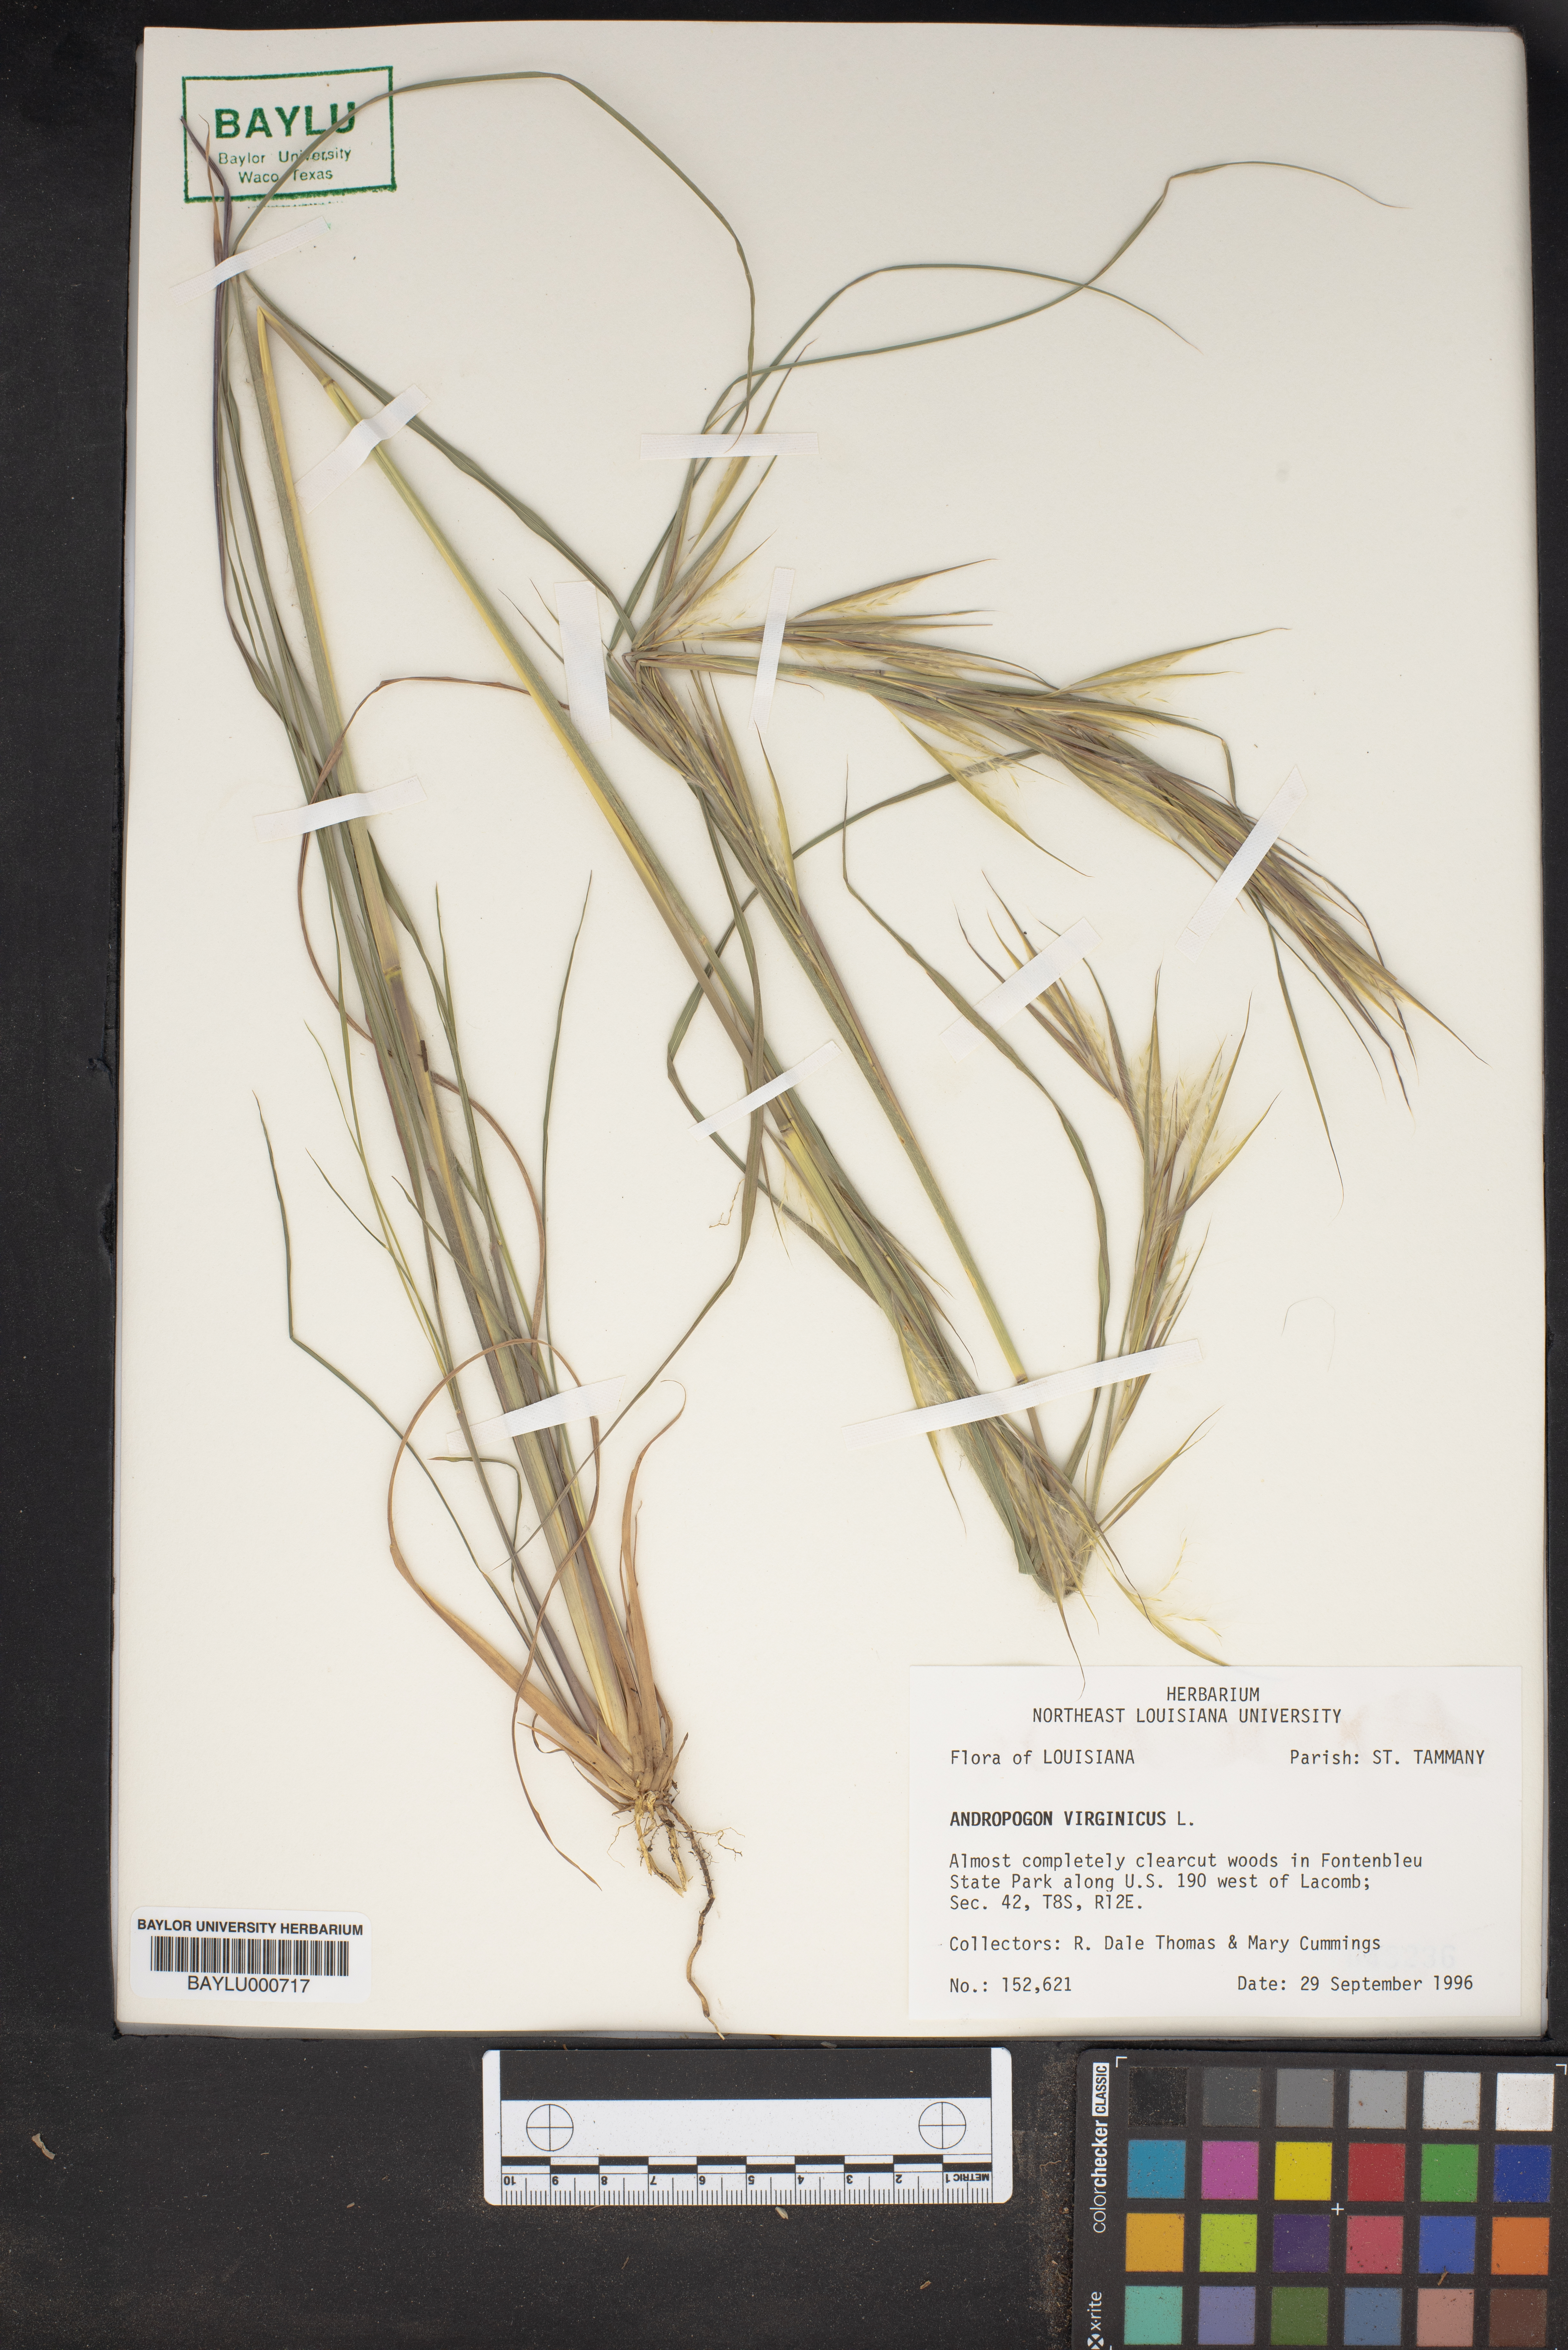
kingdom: Plantae
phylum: Tracheophyta
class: Liliopsida
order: Poales
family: Poaceae
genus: Andropogon
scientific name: Andropogon virginicus
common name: Broomsedge bluestem
